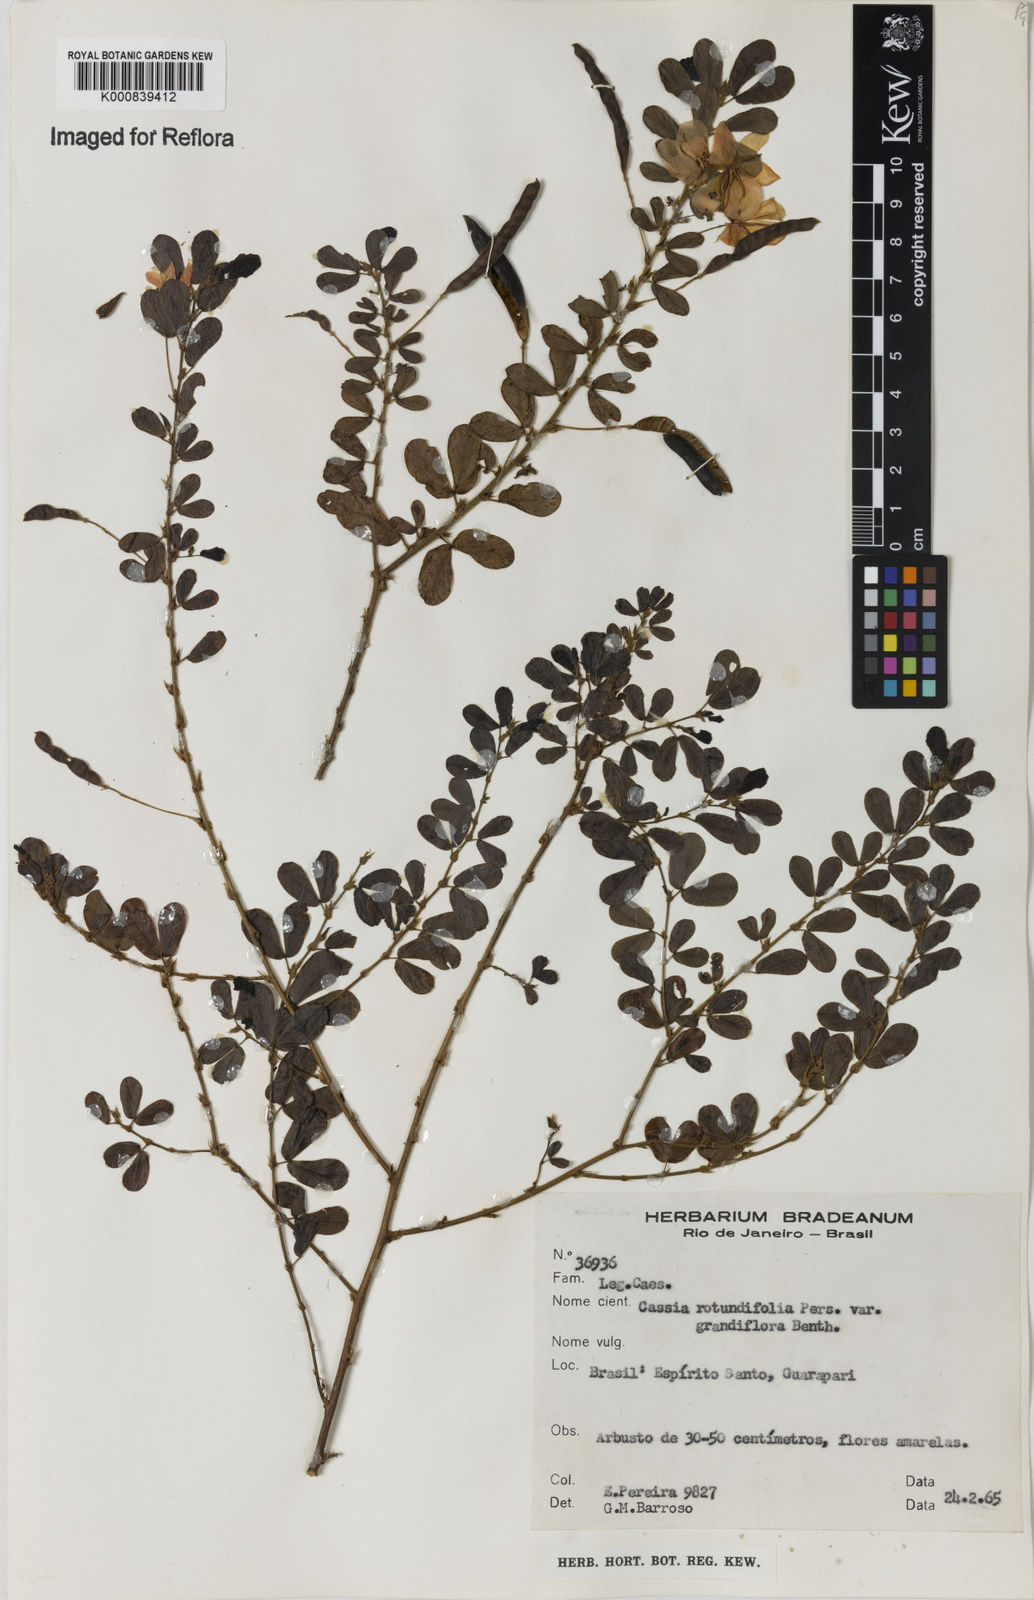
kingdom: Plantae
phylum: Tracheophyta
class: Magnoliopsida
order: Fabales
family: Fabaceae
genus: Chamaecrista
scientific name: Chamaecrista rotundifolia
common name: Round-leaf cassia
